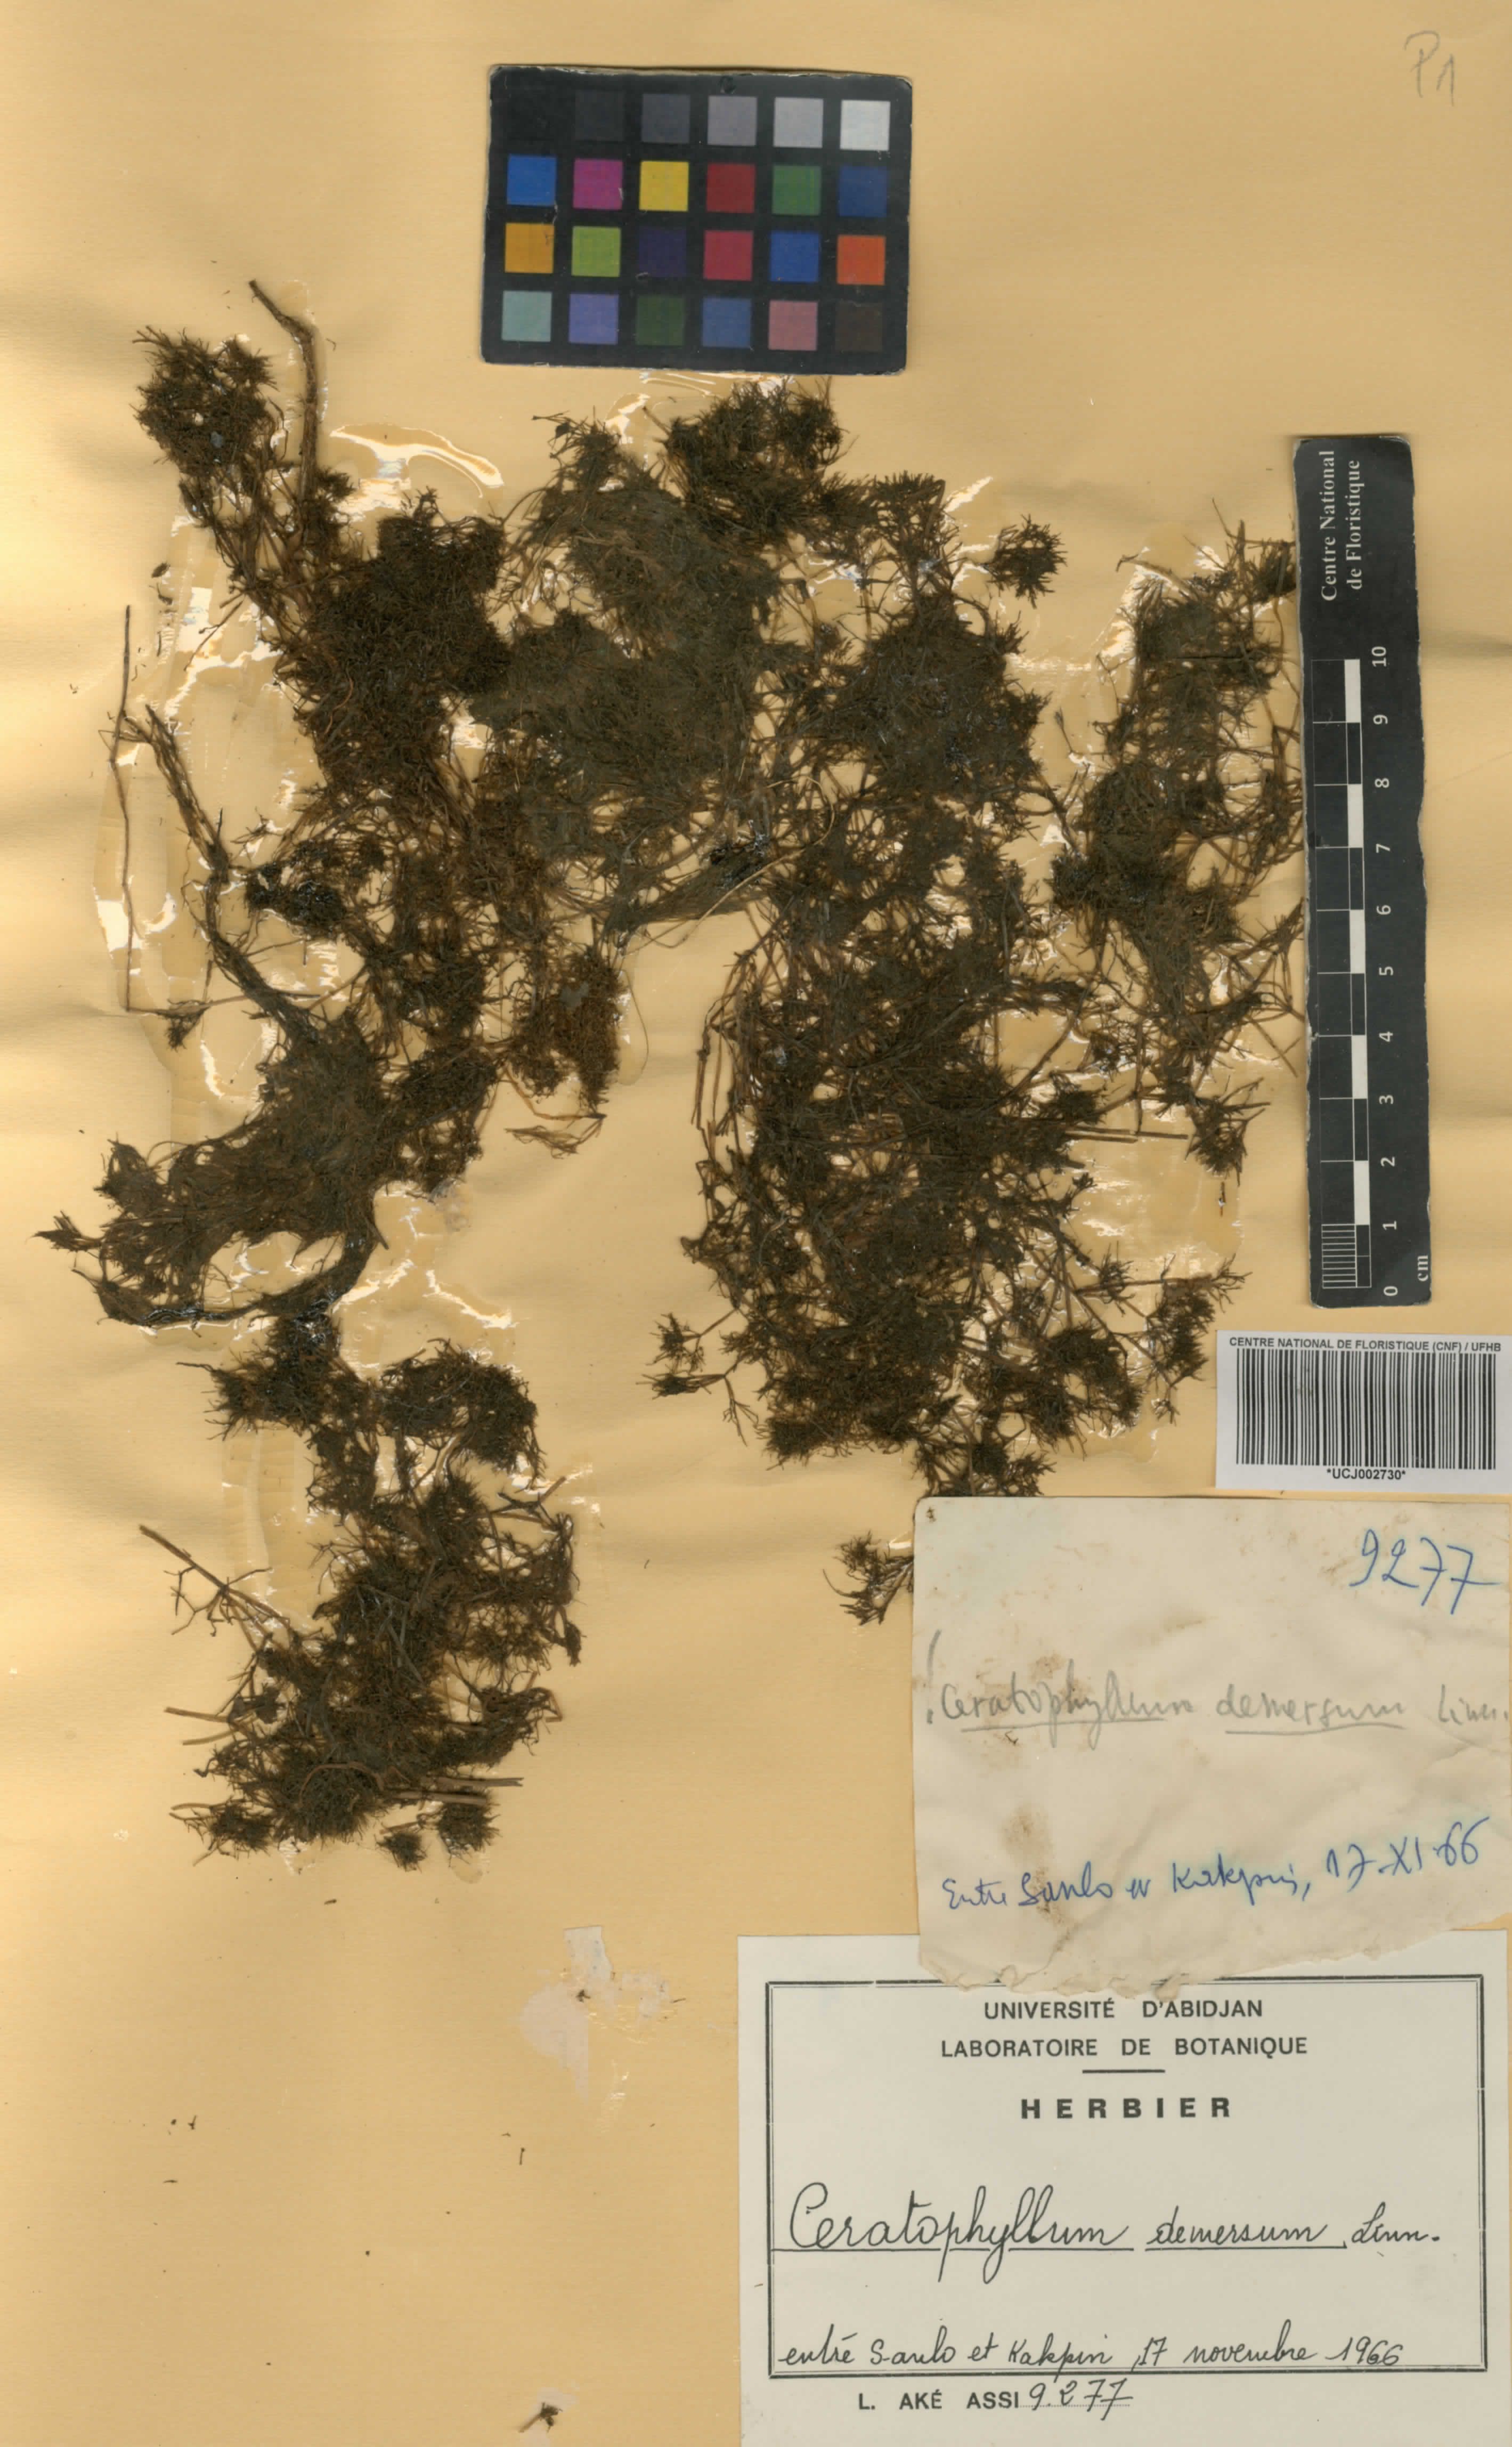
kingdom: Plantae
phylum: Tracheophyta
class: Magnoliopsida
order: Ceratophyllales
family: Ceratophyllaceae
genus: Ceratophyllum
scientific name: Ceratophyllum demersum
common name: Rigid hornwort
